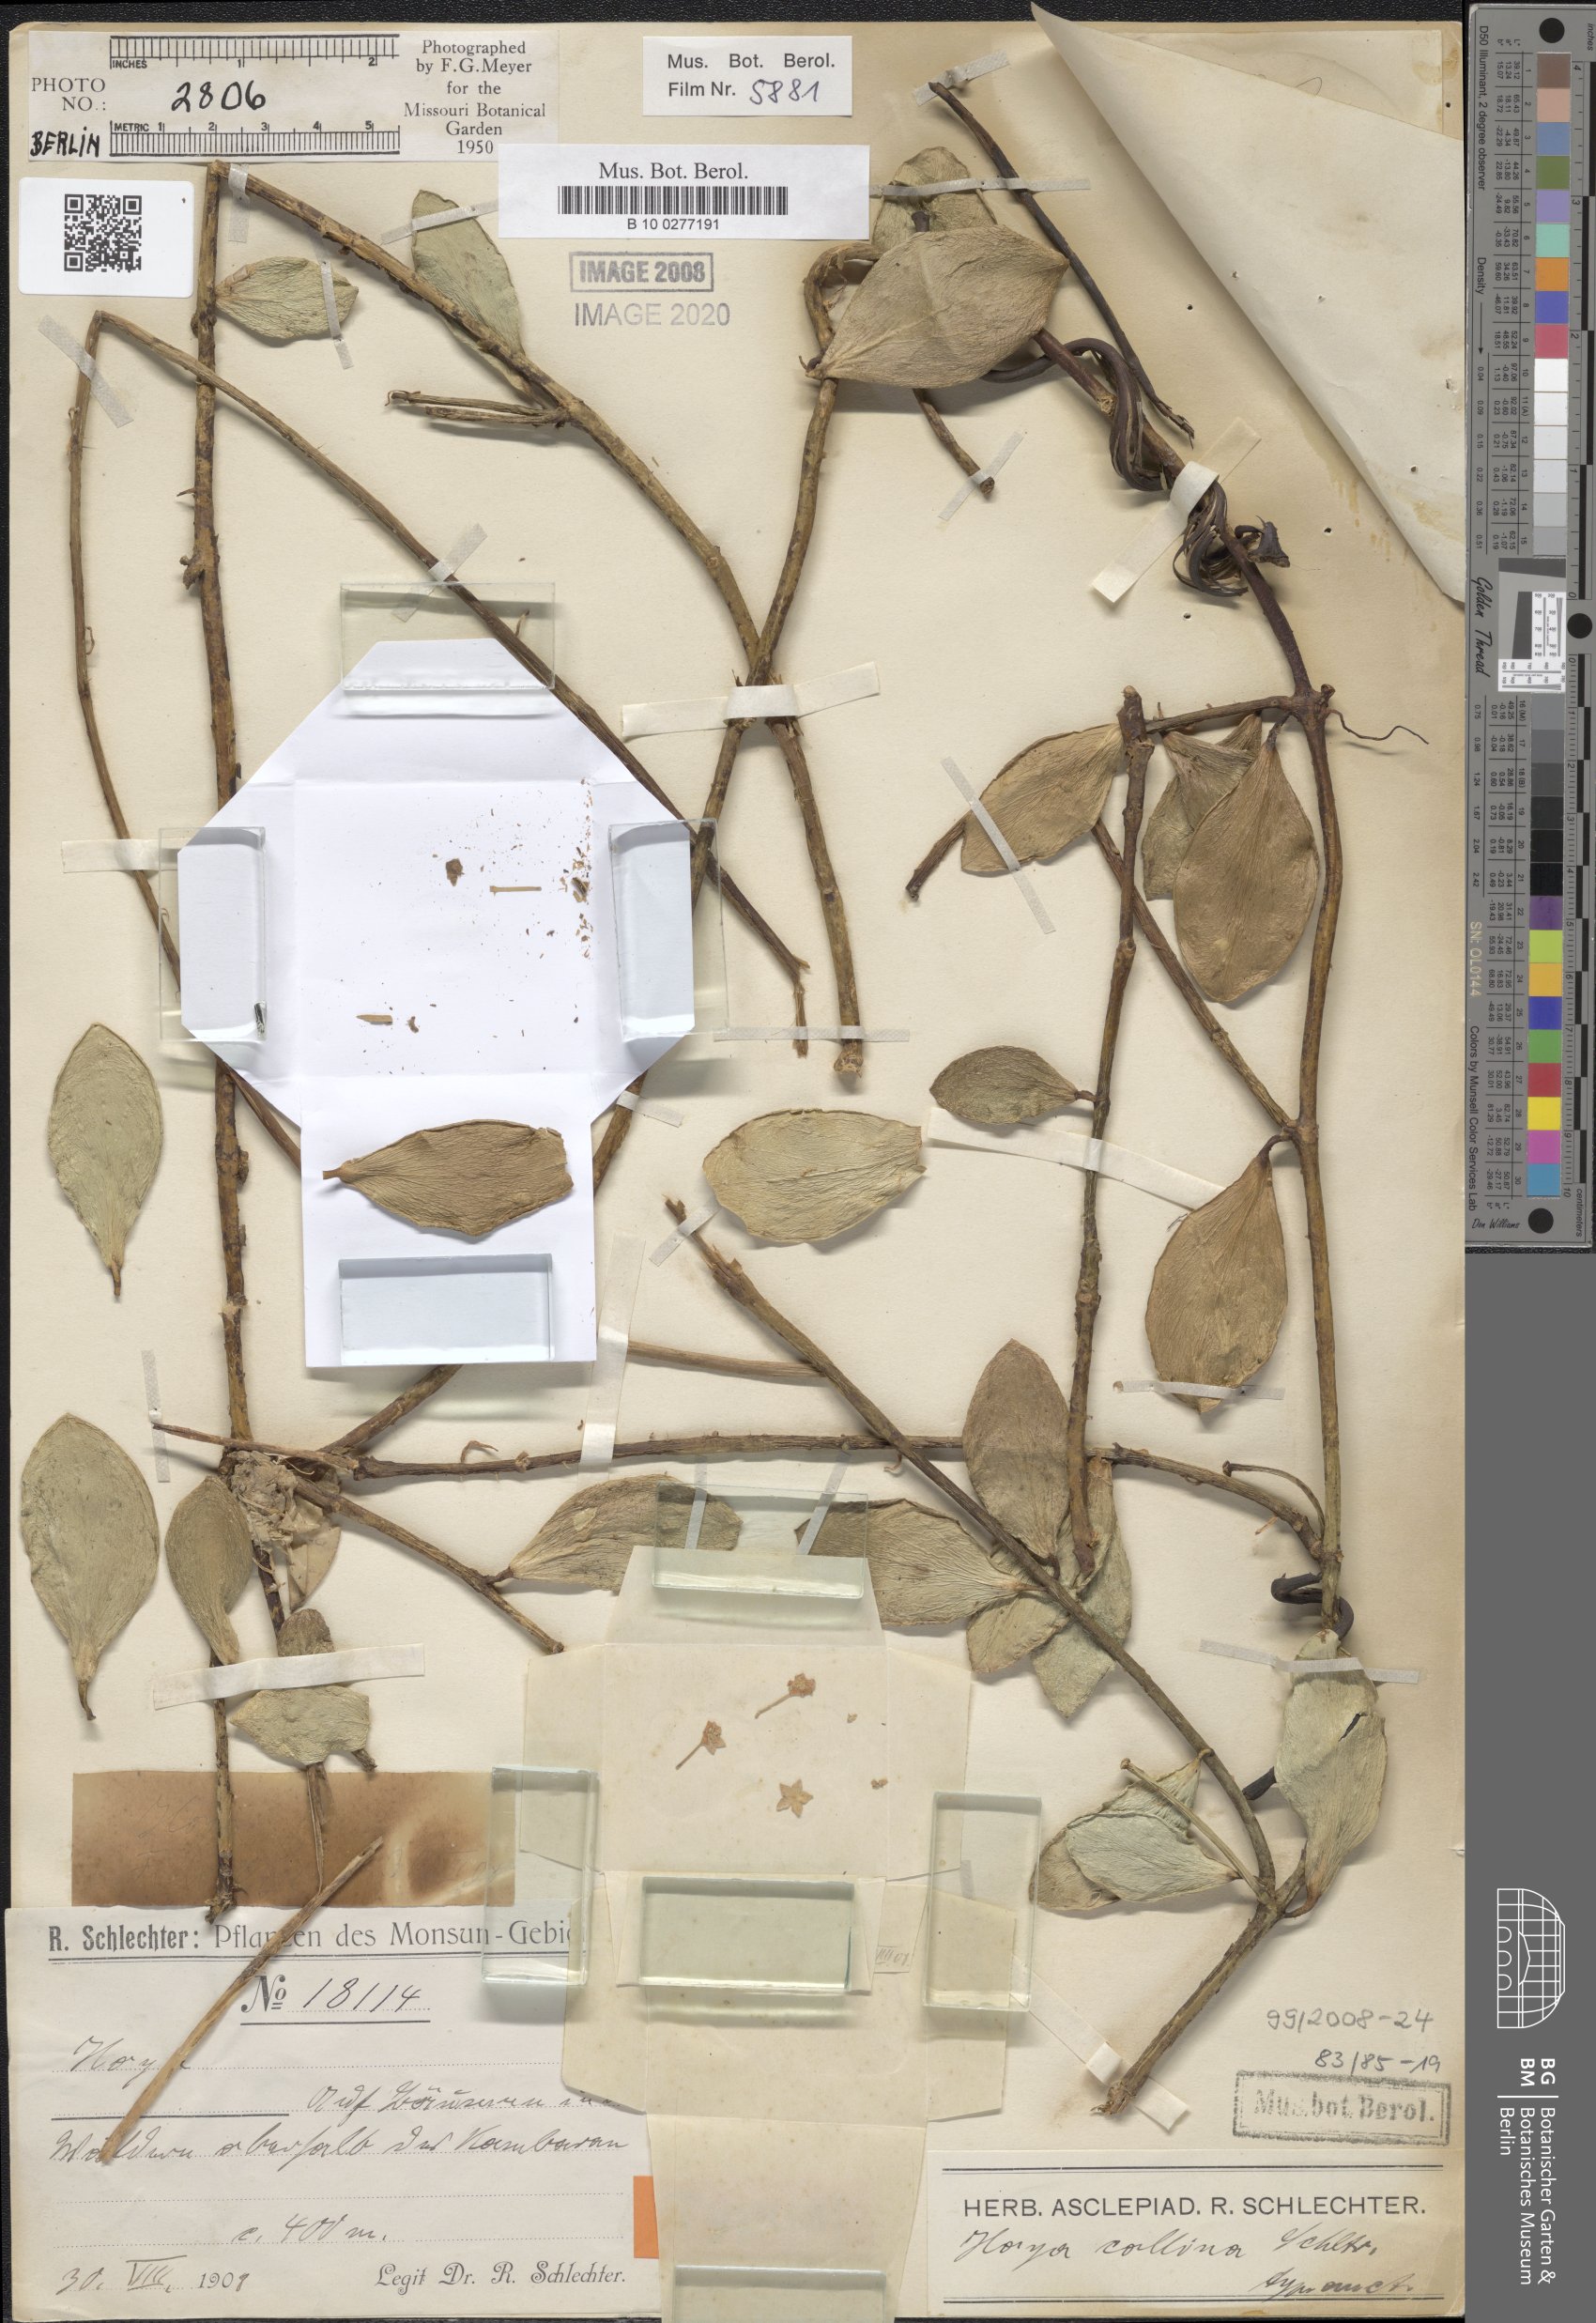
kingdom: Plantae
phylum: Tracheophyta
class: Magnoliopsida
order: Gentianales
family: Apocynaceae
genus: Hoya
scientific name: Hoya collina
